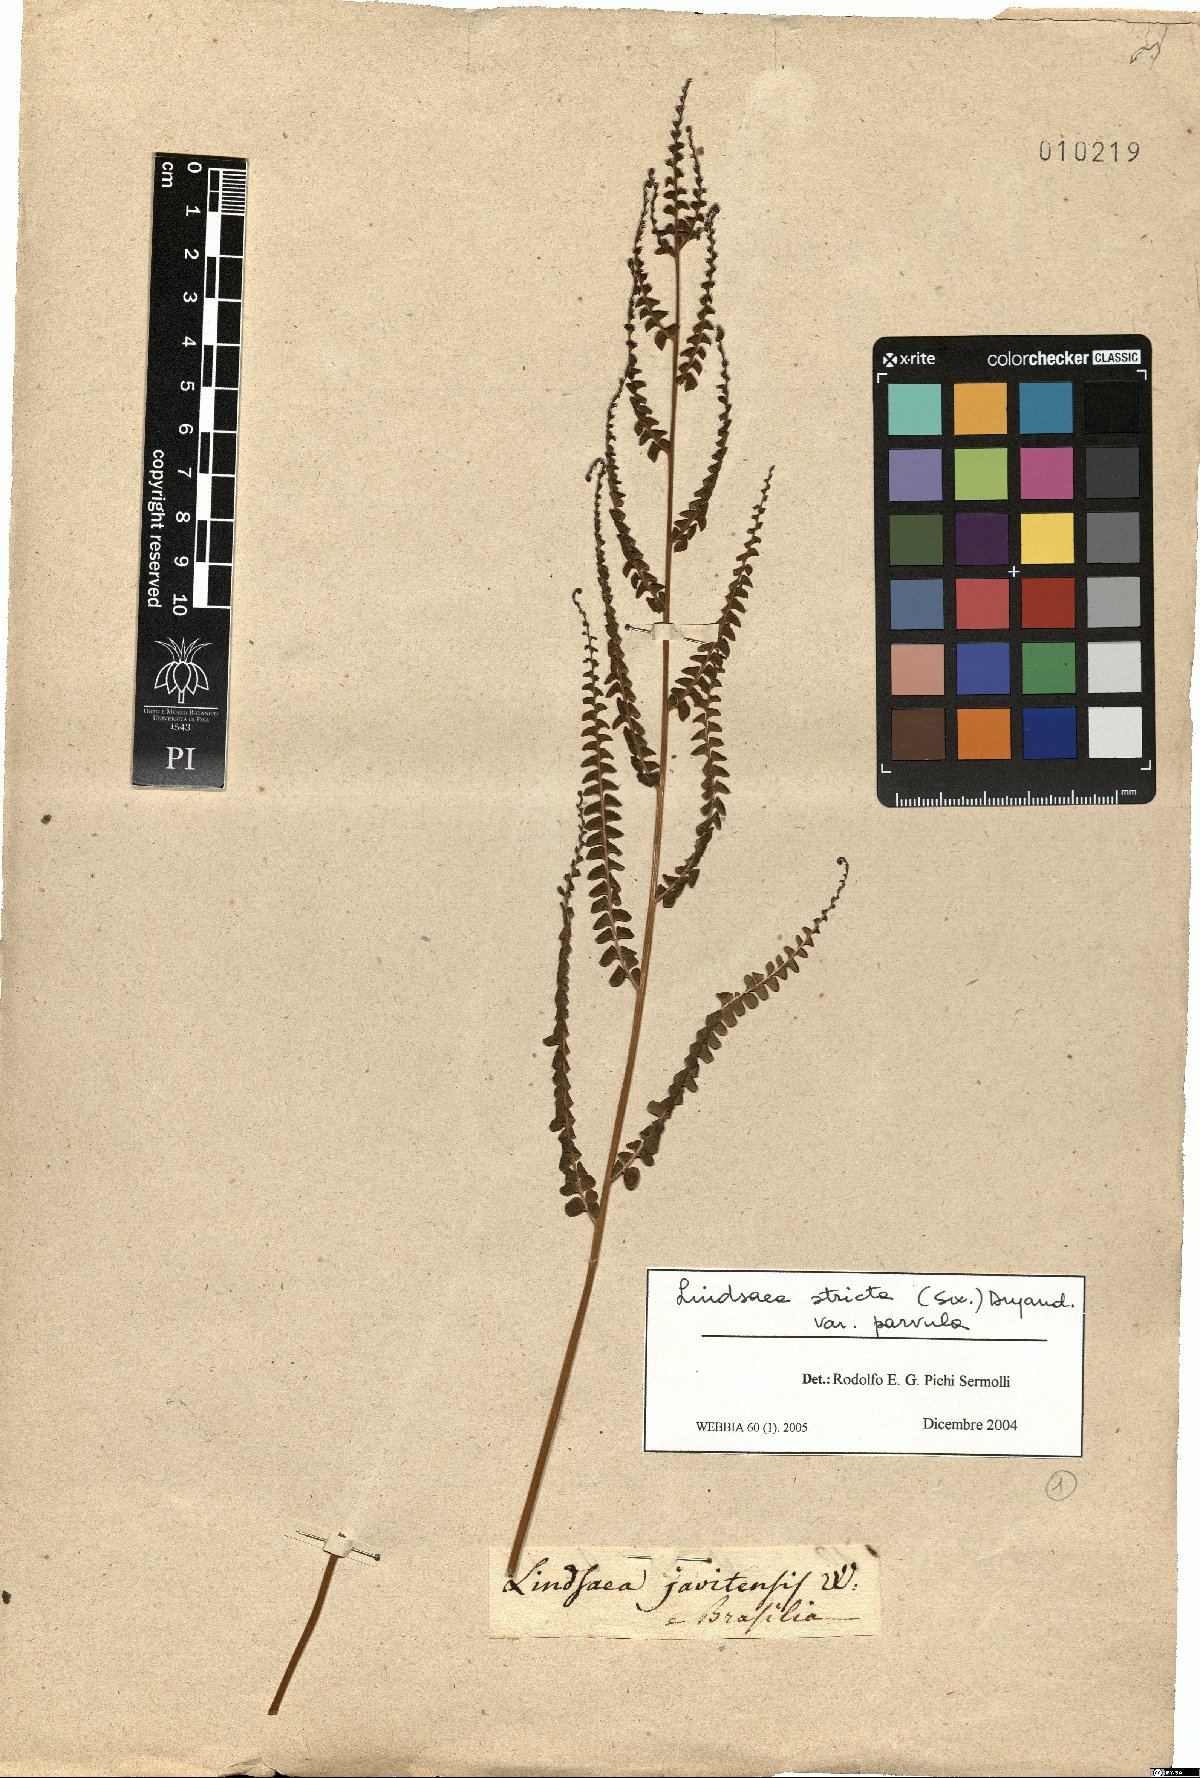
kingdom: Plantae
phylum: Tracheophyta
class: Polypodiopsida
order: Polypodiales
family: Lindsaeaceae
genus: Lindsaea
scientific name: Lindsaea stricta
